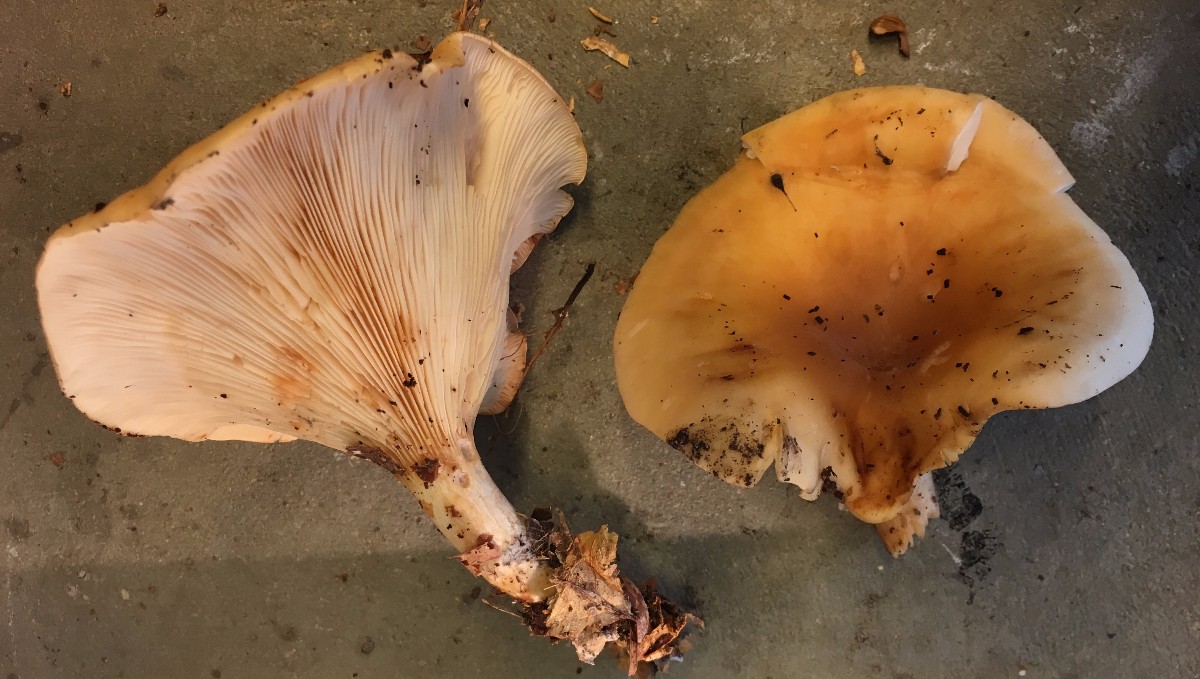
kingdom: Fungi
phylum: Basidiomycota
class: Agaricomycetes
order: Agaricales
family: Tricholomataceae
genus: Paralepista
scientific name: Paralepista flaccida
